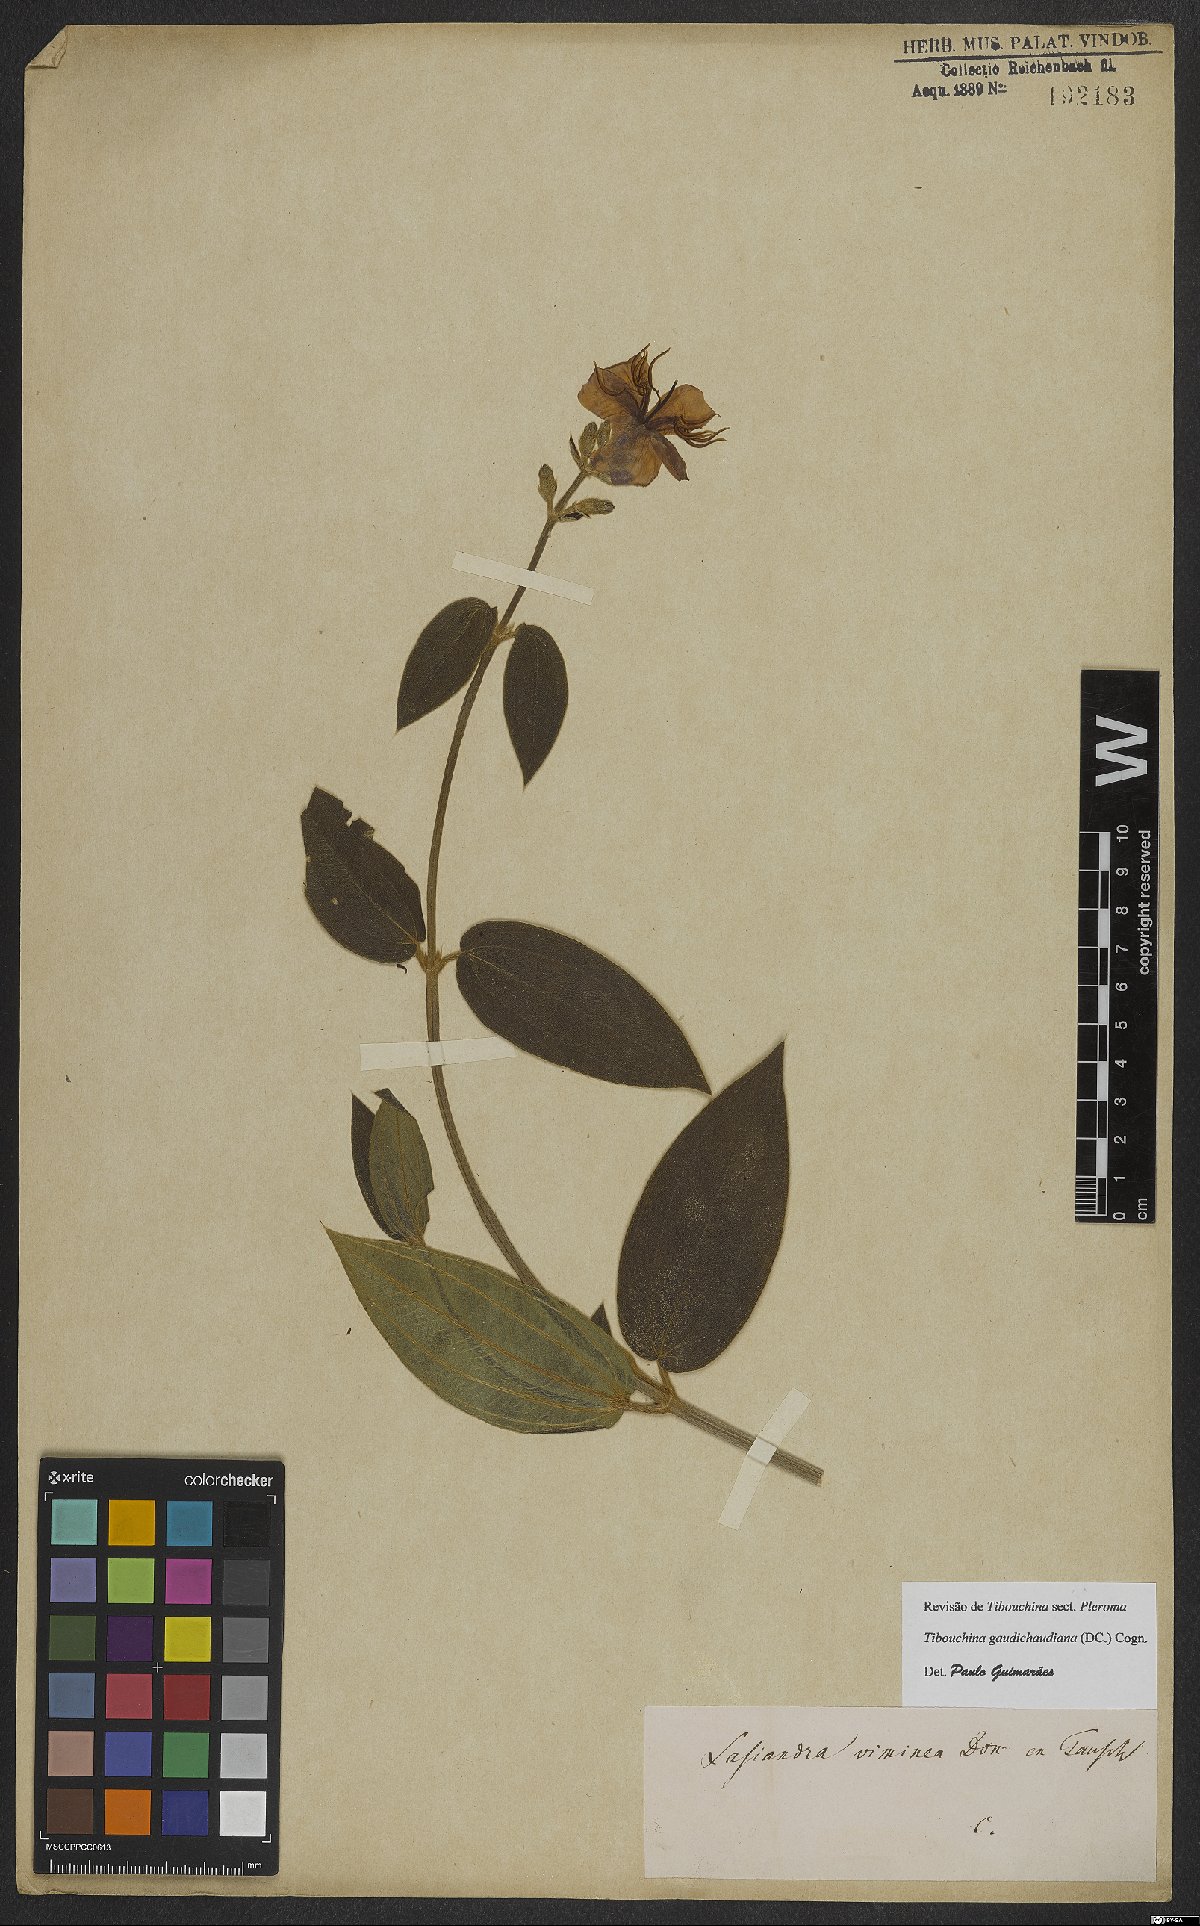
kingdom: Plantae
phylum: Tracheophyta
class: Magnoliopsida
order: Myrtales
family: Melastomataceae
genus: Pleroma
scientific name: Pleroma gaudichaudianum
